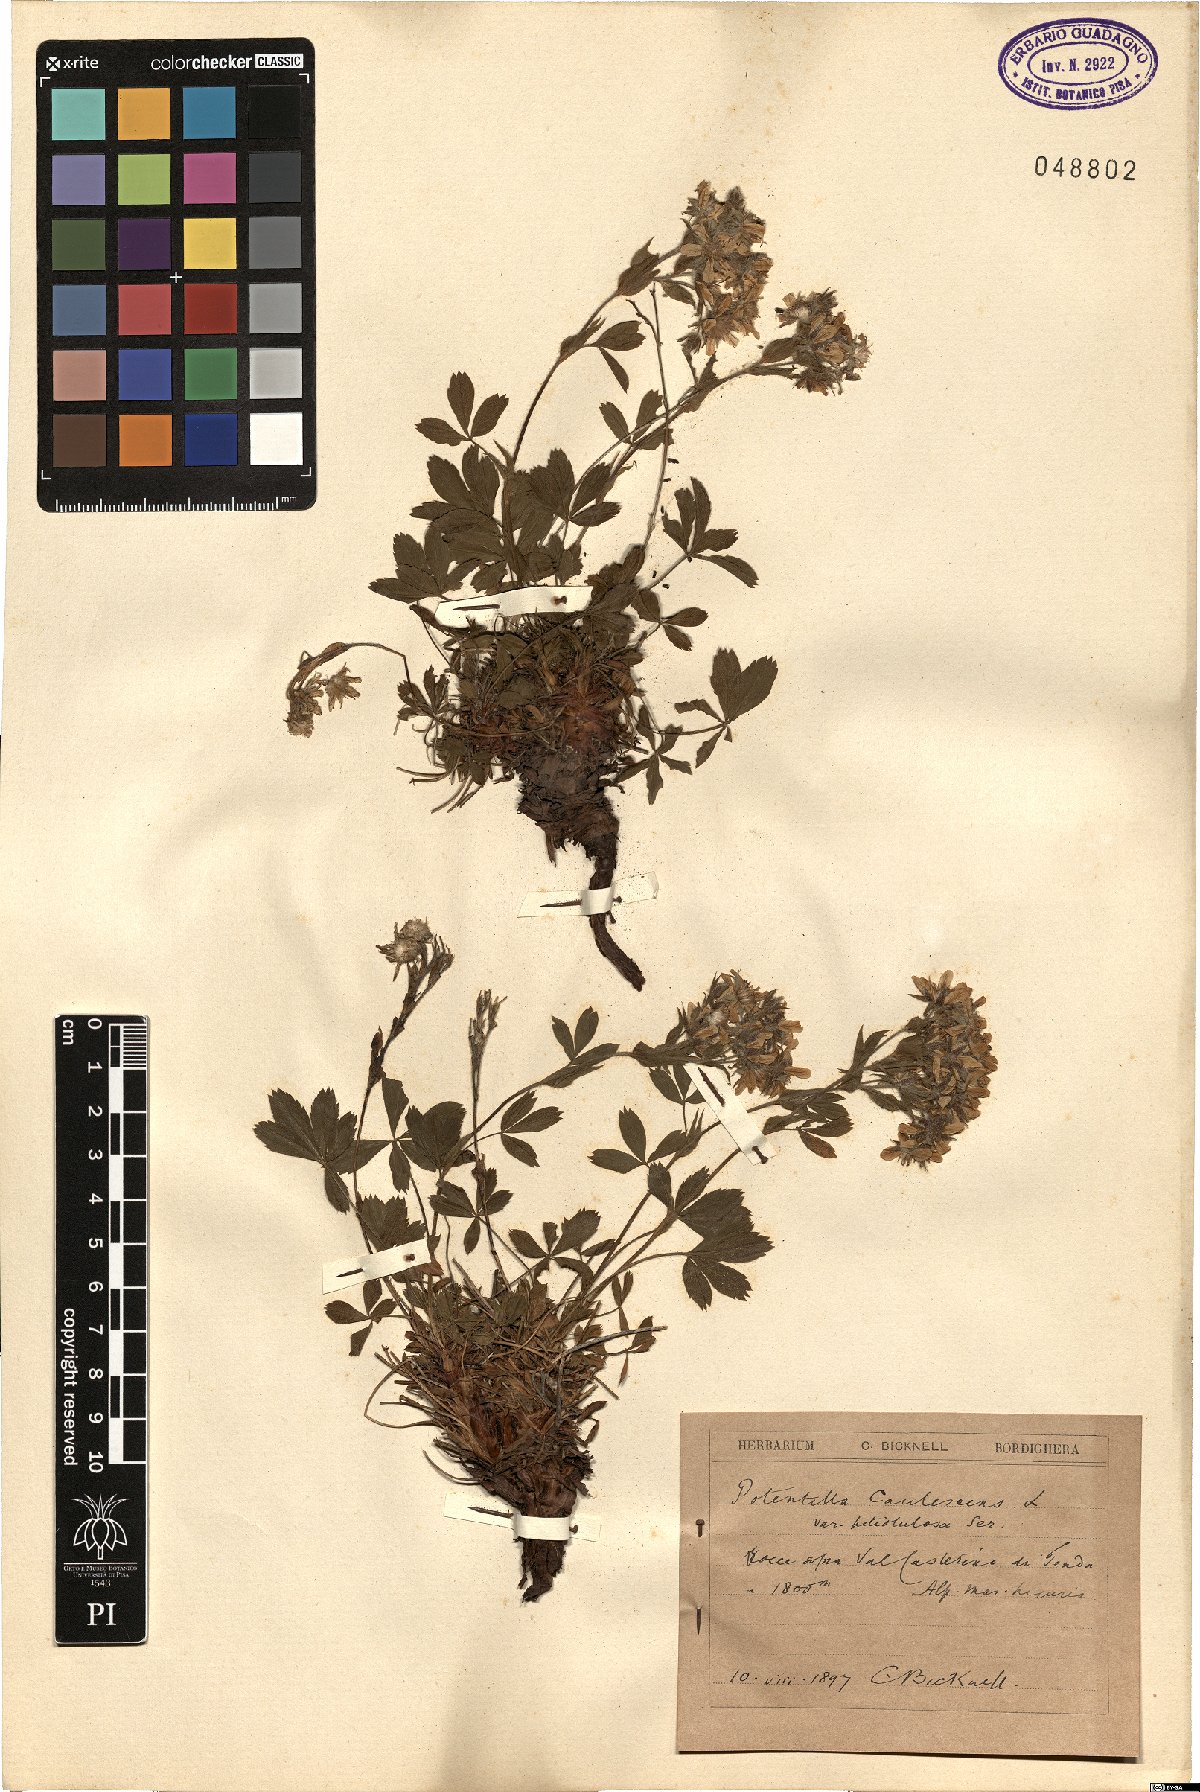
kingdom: Plantae
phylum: Tracheophyta
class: Magnoliopsida
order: Rosales
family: Rosaceae
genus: Potentilla
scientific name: Potentilla caulescens
